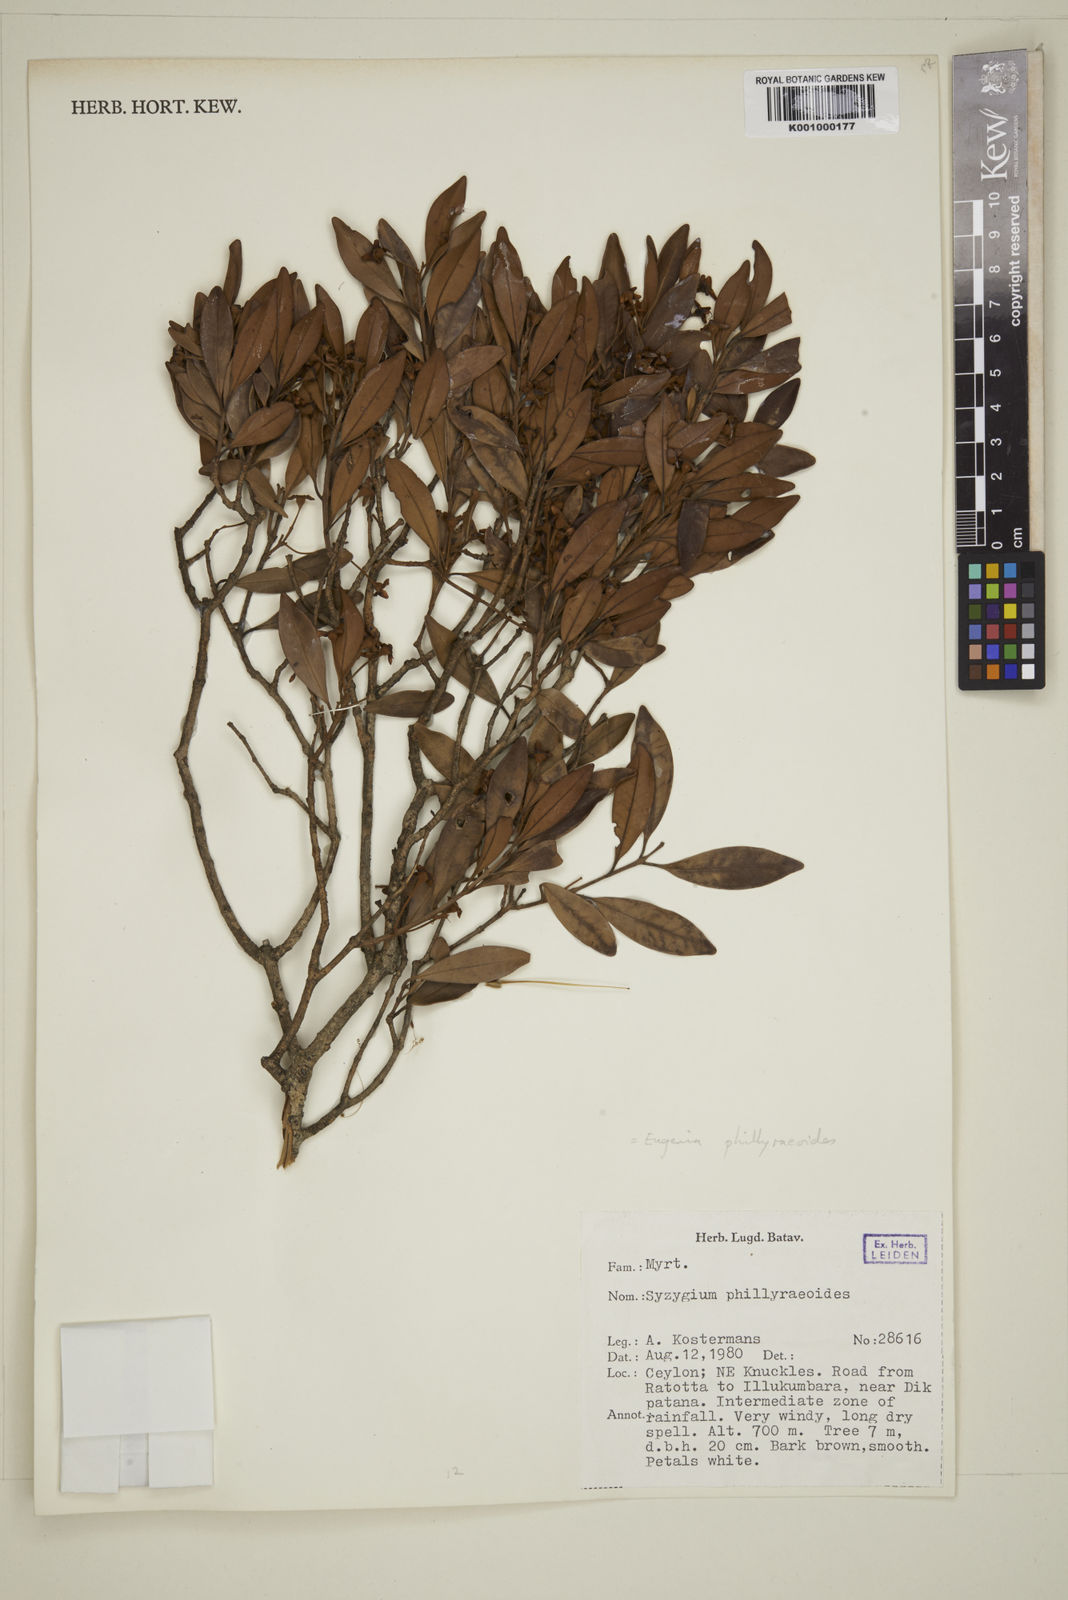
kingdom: Plantae
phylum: Tracheophyta
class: Magnoliopsida
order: Myrtales
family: Myrtaceae
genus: Eugenia
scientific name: Eugenia
